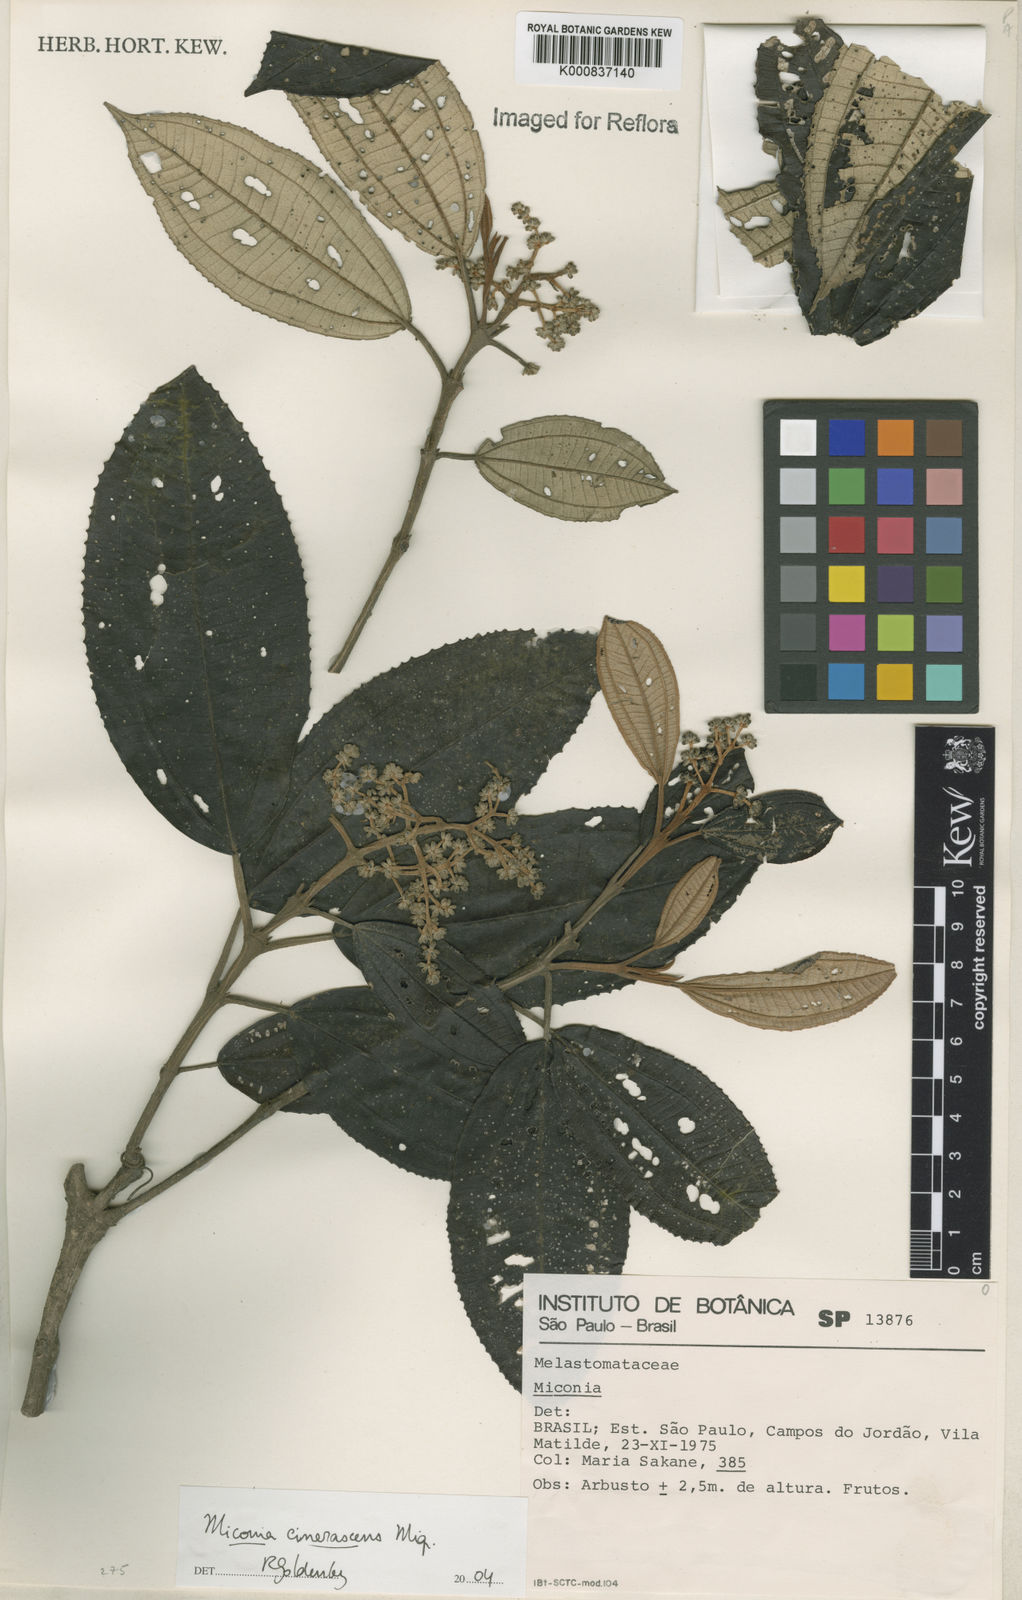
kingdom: Plantae
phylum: Tracheophyta
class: Magnoliopsida
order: Myrtales
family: Melastomataceae
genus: Miconia
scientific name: Miconia cinerascens
